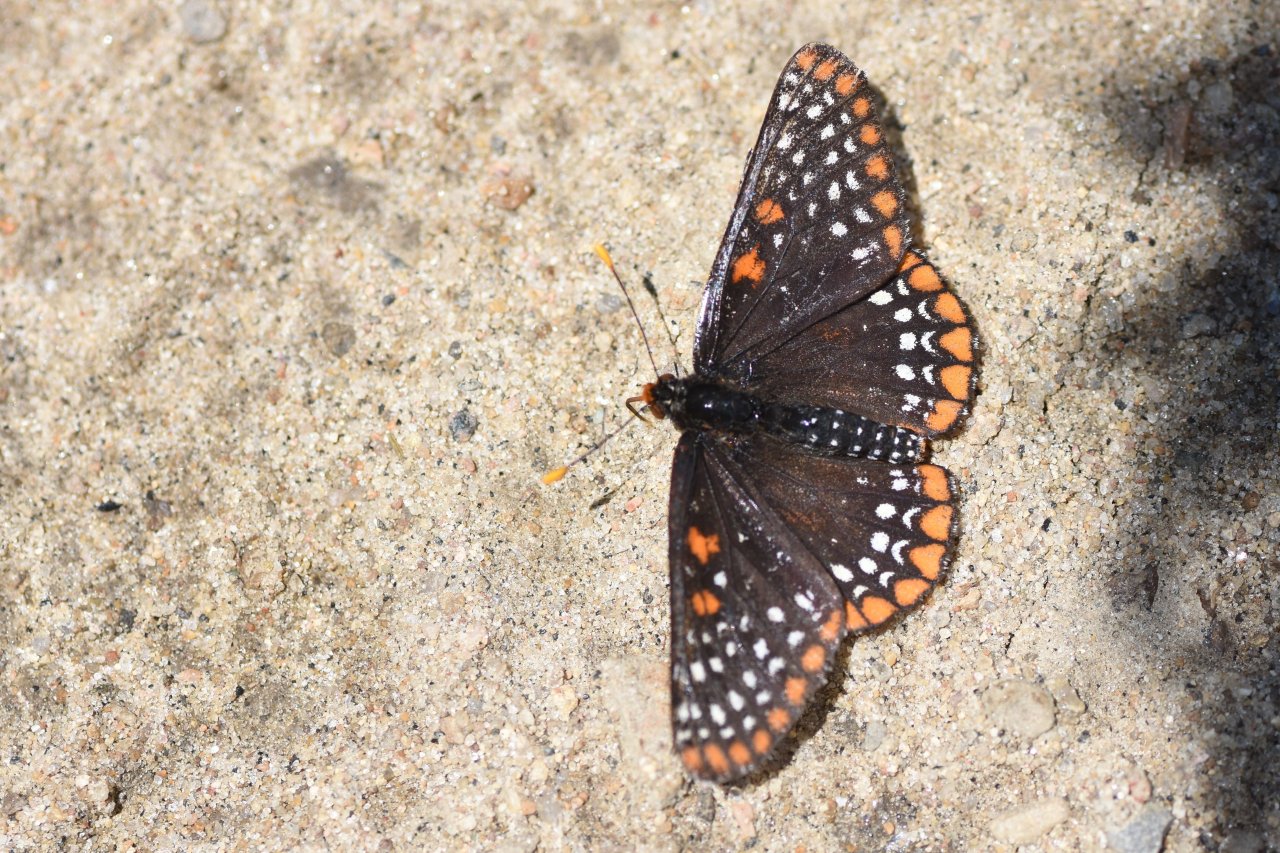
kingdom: Animalia
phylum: Arthropoda
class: Insecta
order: Lepidoptera
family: Nymphalidae
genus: Euphydryas
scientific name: Euphydryas phaeton
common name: Baltimore Checkerspot
